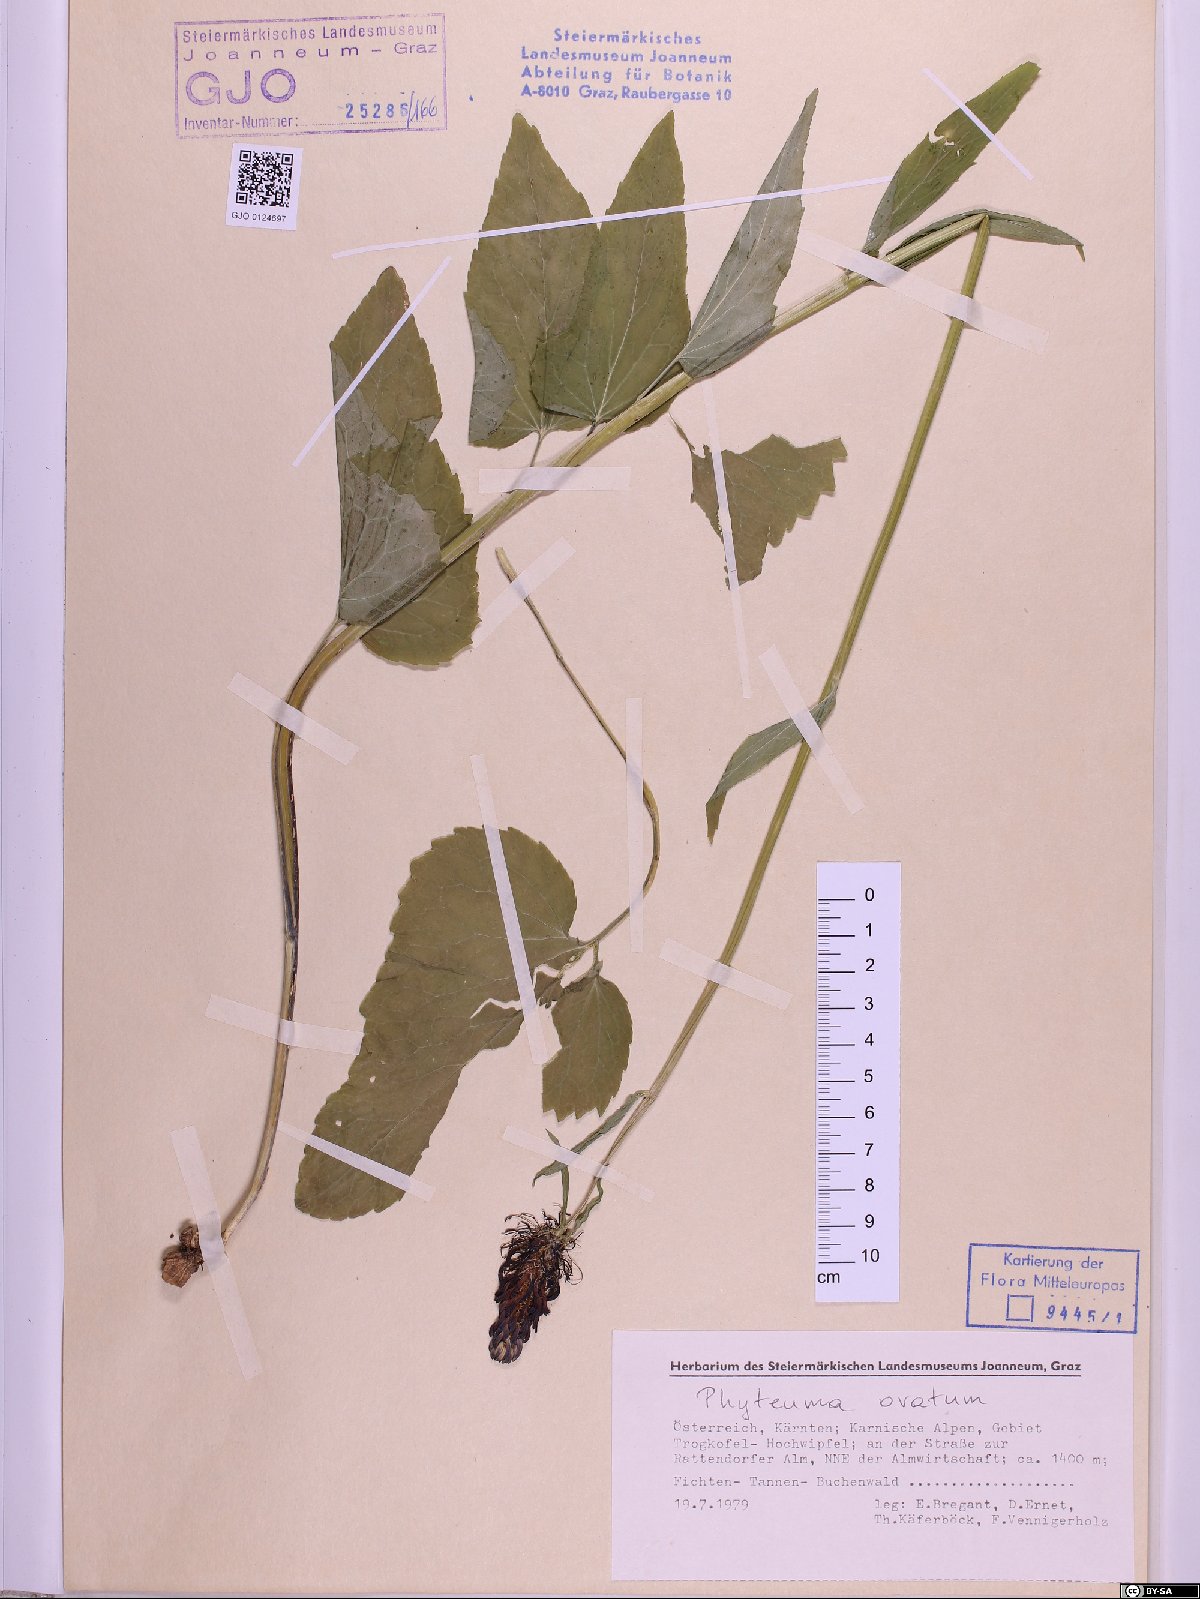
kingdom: Plantae
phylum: Tracheophyta
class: Magnoliopsida
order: Asterales
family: Campanulaceae
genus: Phyteuma
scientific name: Phyteuma ovatum
